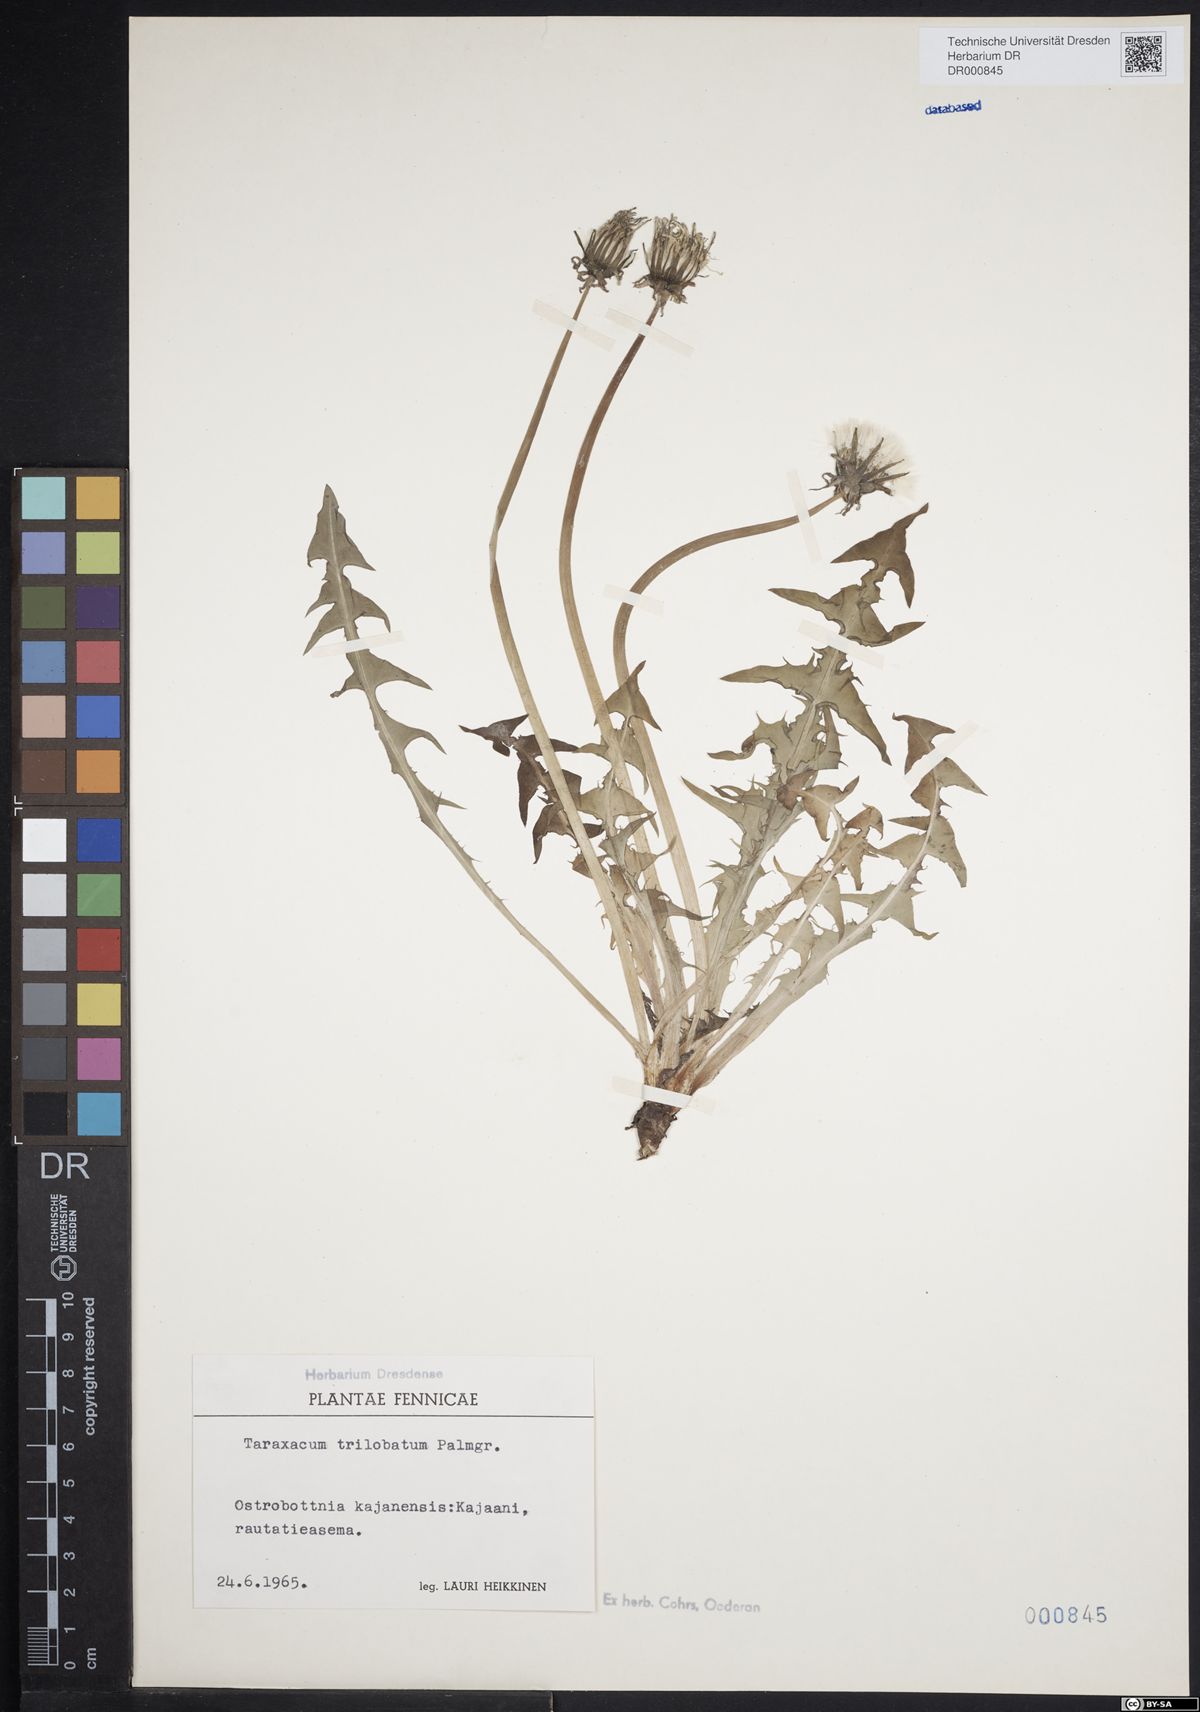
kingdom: Plantae
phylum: Tracheophyta
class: Magnoliopsida
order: Asterales
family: Asteraceae
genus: Taraxacum
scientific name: Taraxacum trilobatum
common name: Three-lobed dandelion
